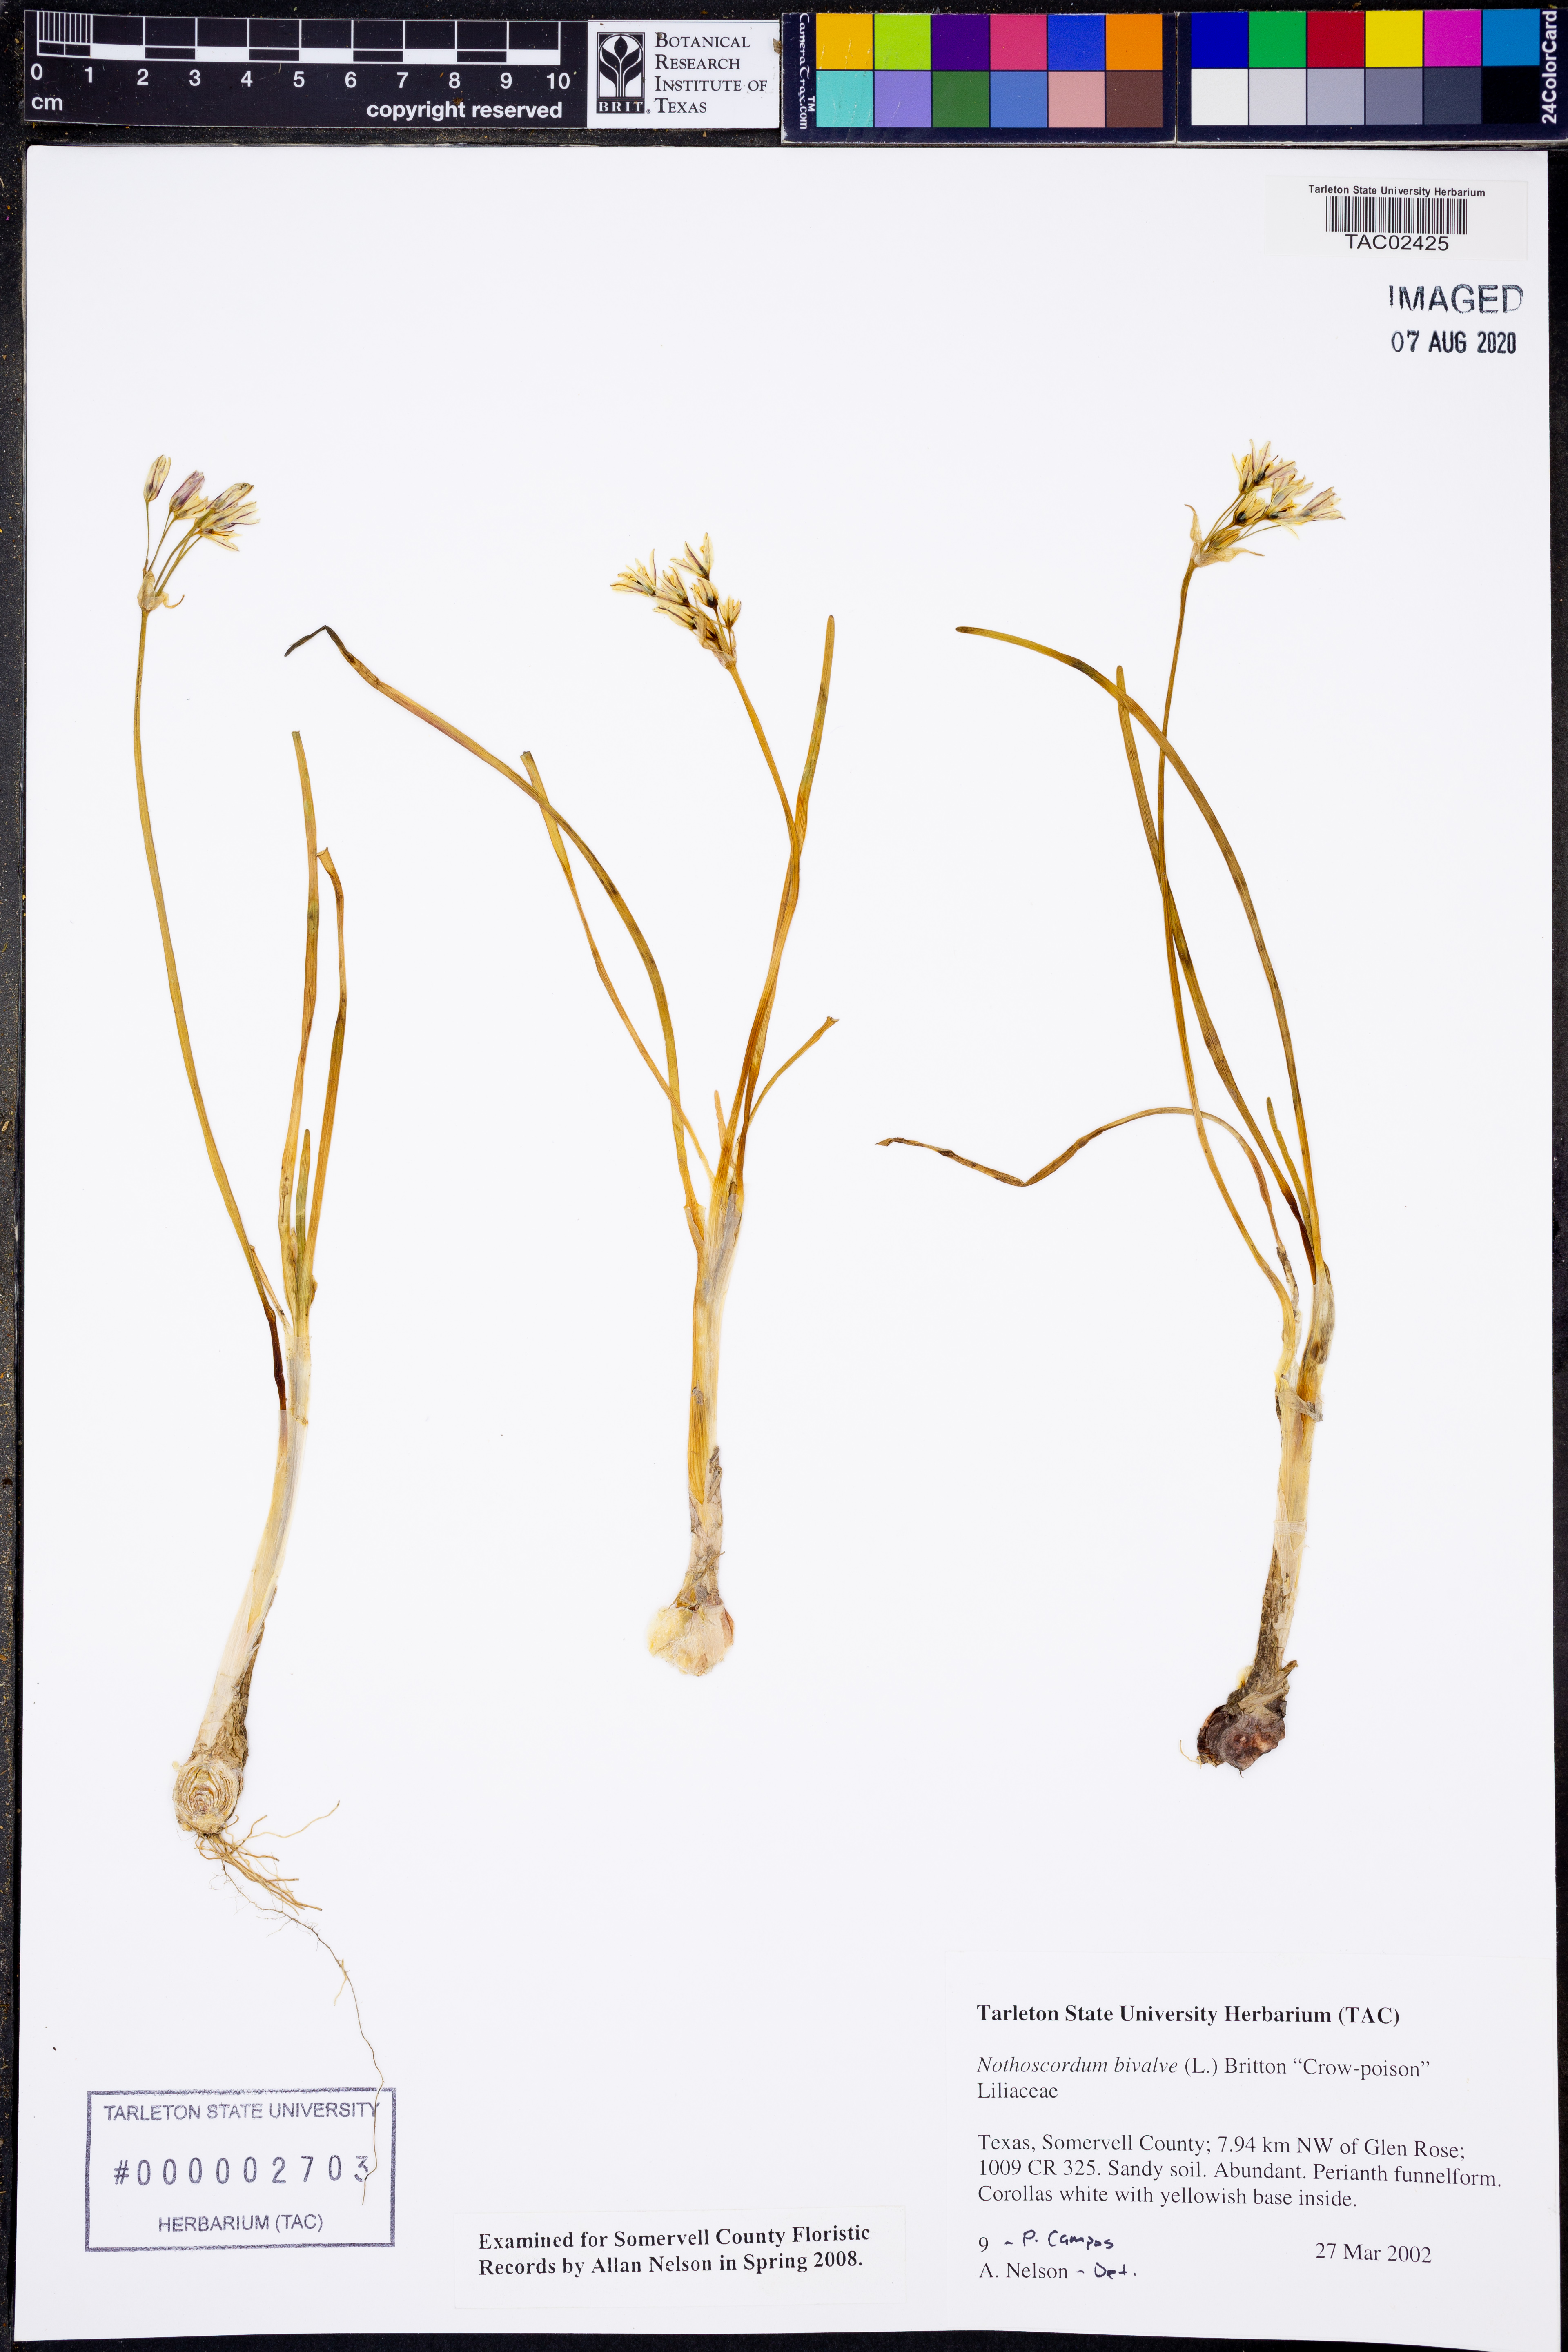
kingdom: Plantae
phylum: Tracheophyta
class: Liliopsida
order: Asparagales
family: Amaryllidaceae
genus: Nothoscordum
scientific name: Nothoscordum bivalve
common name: Crow-poison
